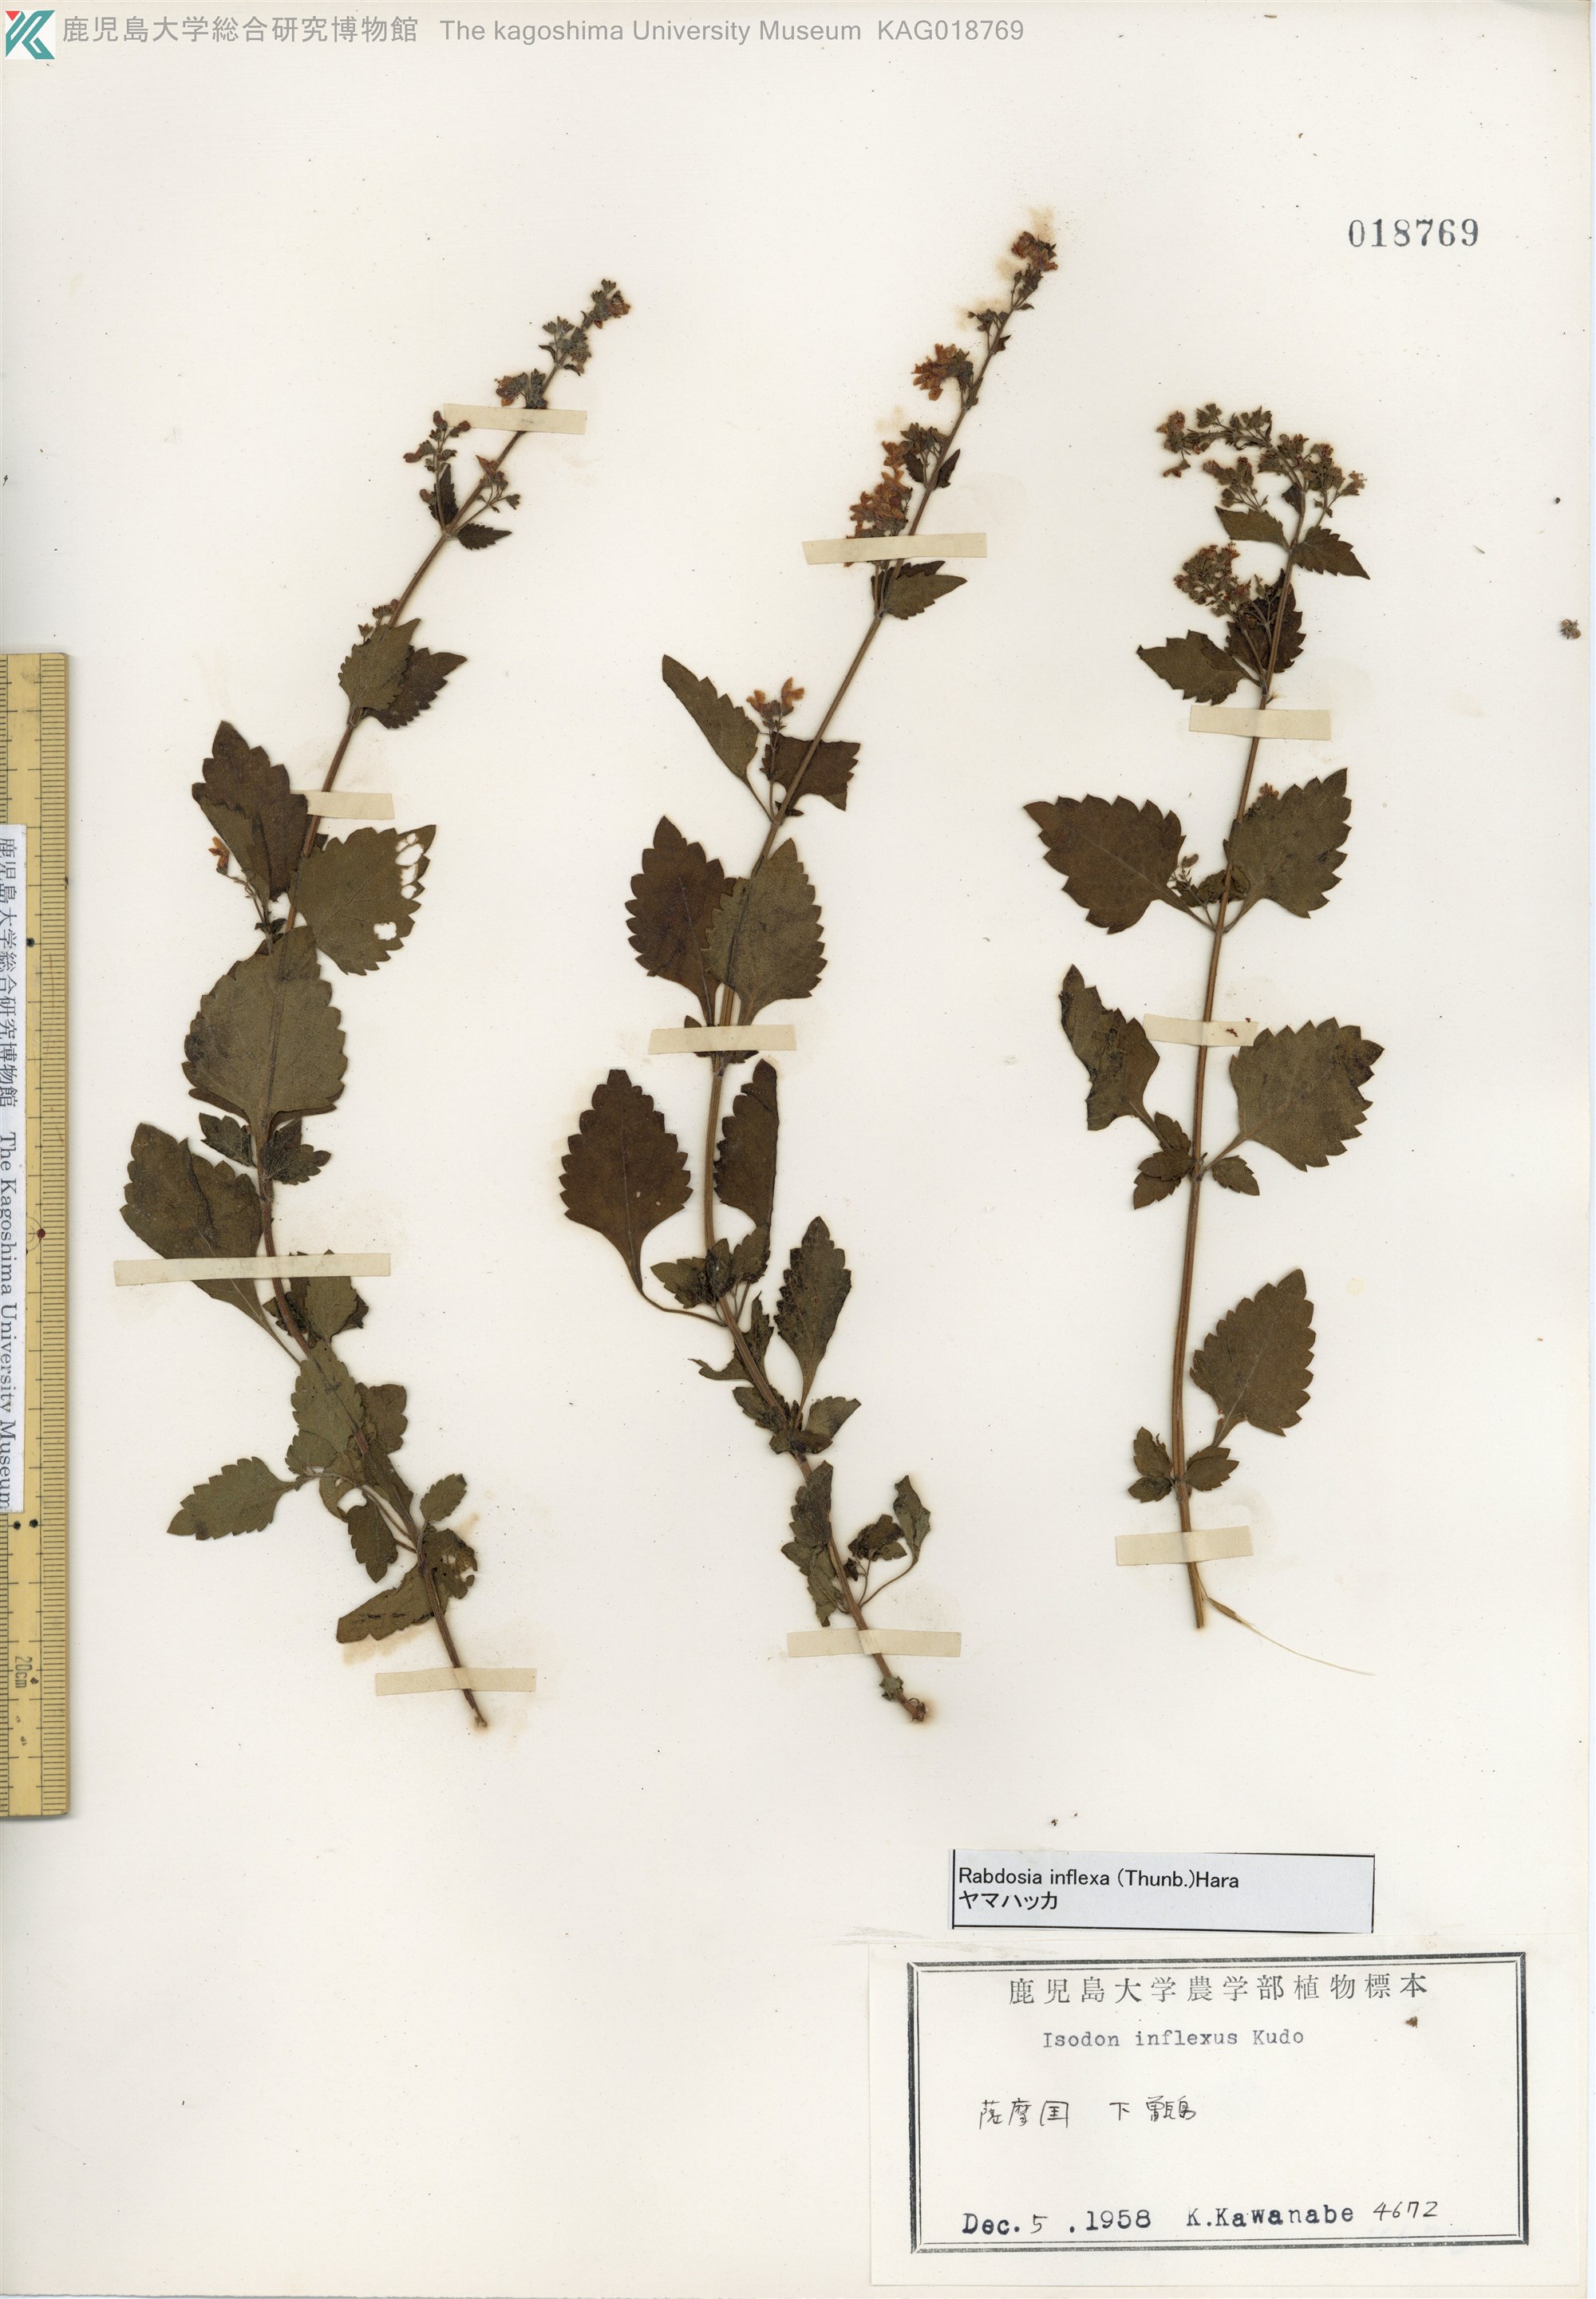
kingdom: Plantae
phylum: Tracheophyta
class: Magnoliopsida
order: Lamiales
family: Lamiaceae
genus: Isodon
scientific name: Isodon inflexus
